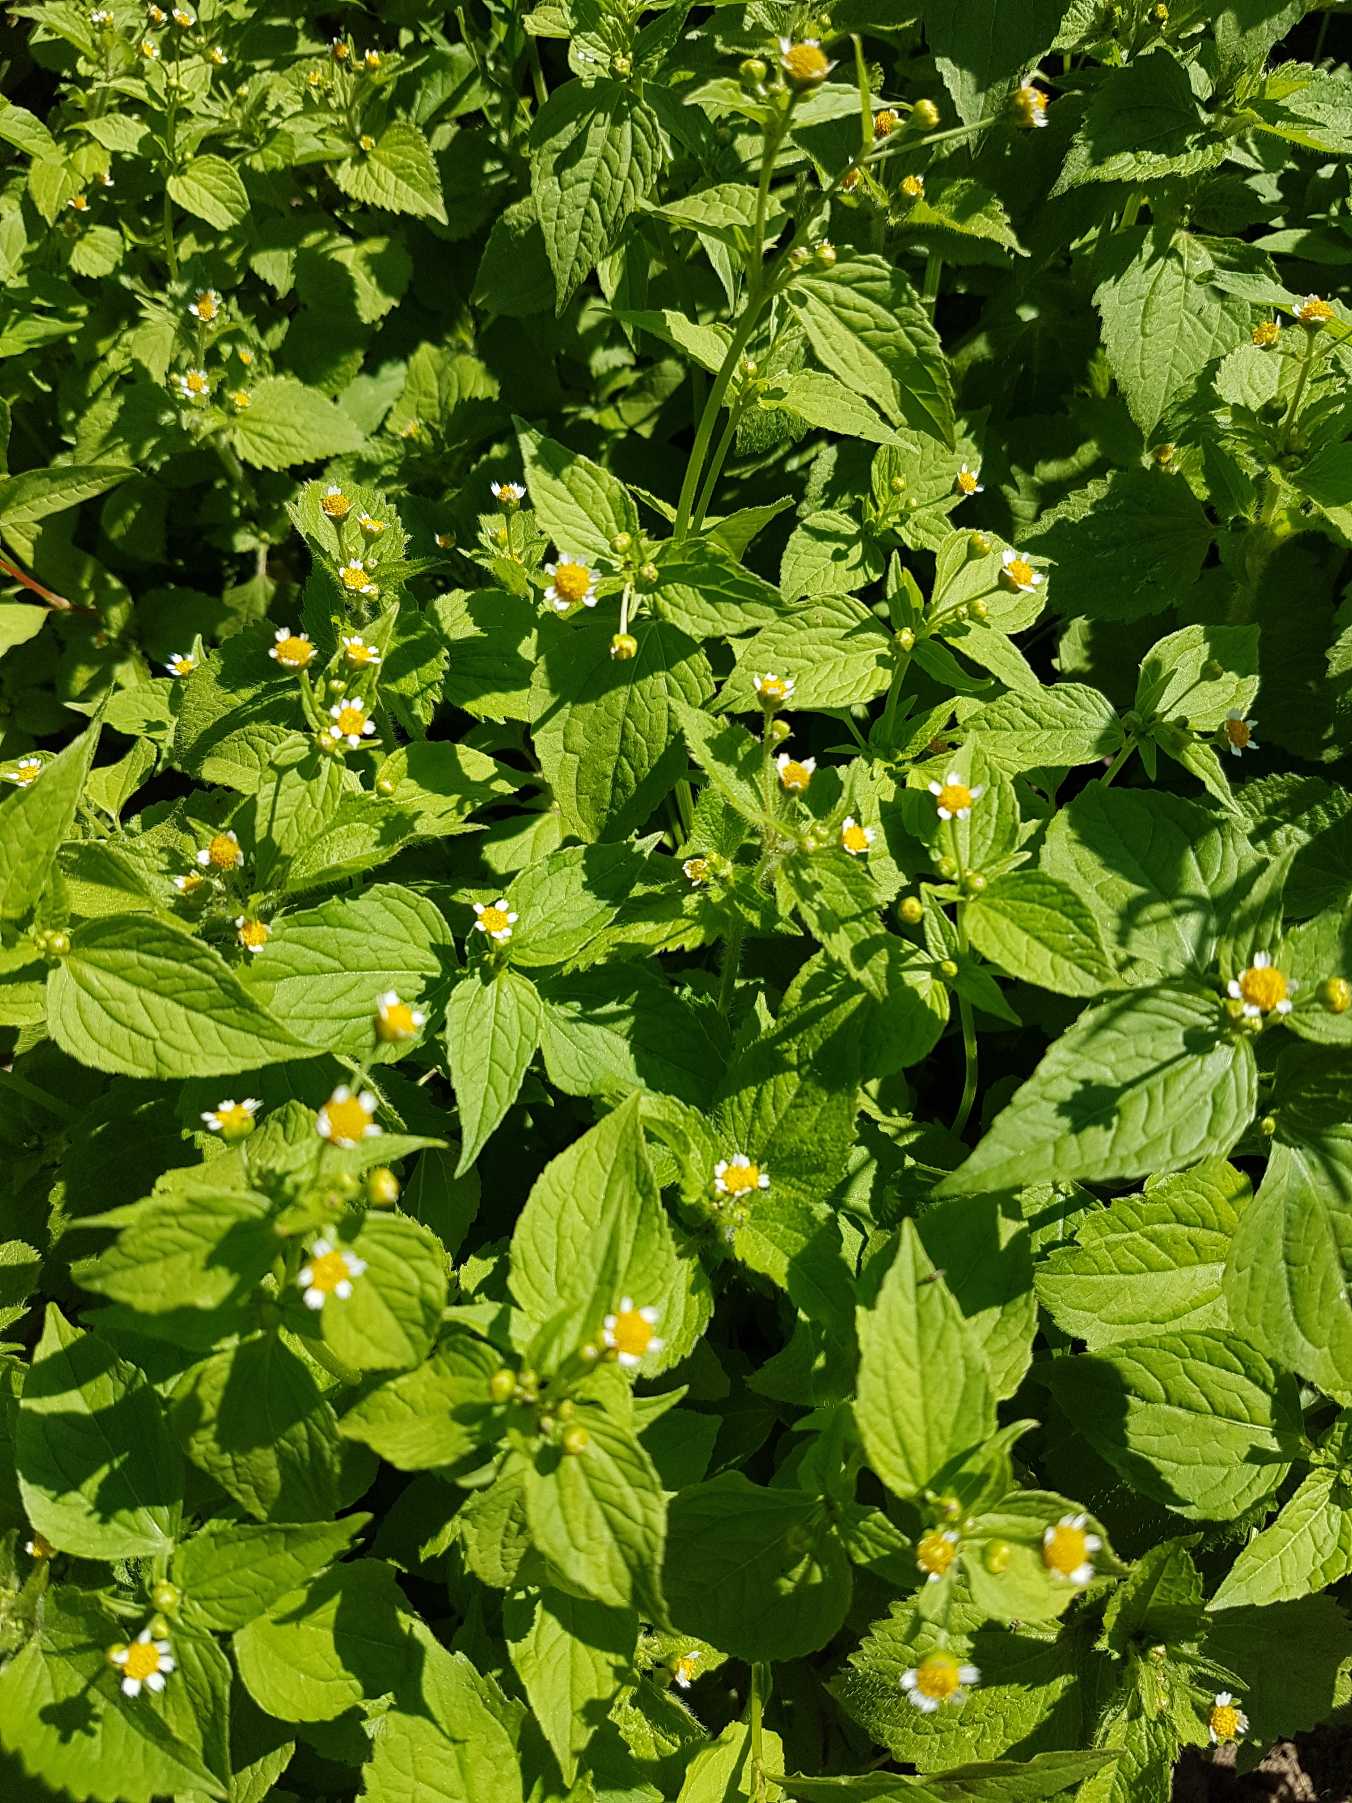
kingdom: Plantae
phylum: Tracheophyta
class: Magnoliopsida
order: Asterales
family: Asteraceae
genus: Galinsoga
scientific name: Galinsoga quadriradiata
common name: Kirtel-kortstråle
